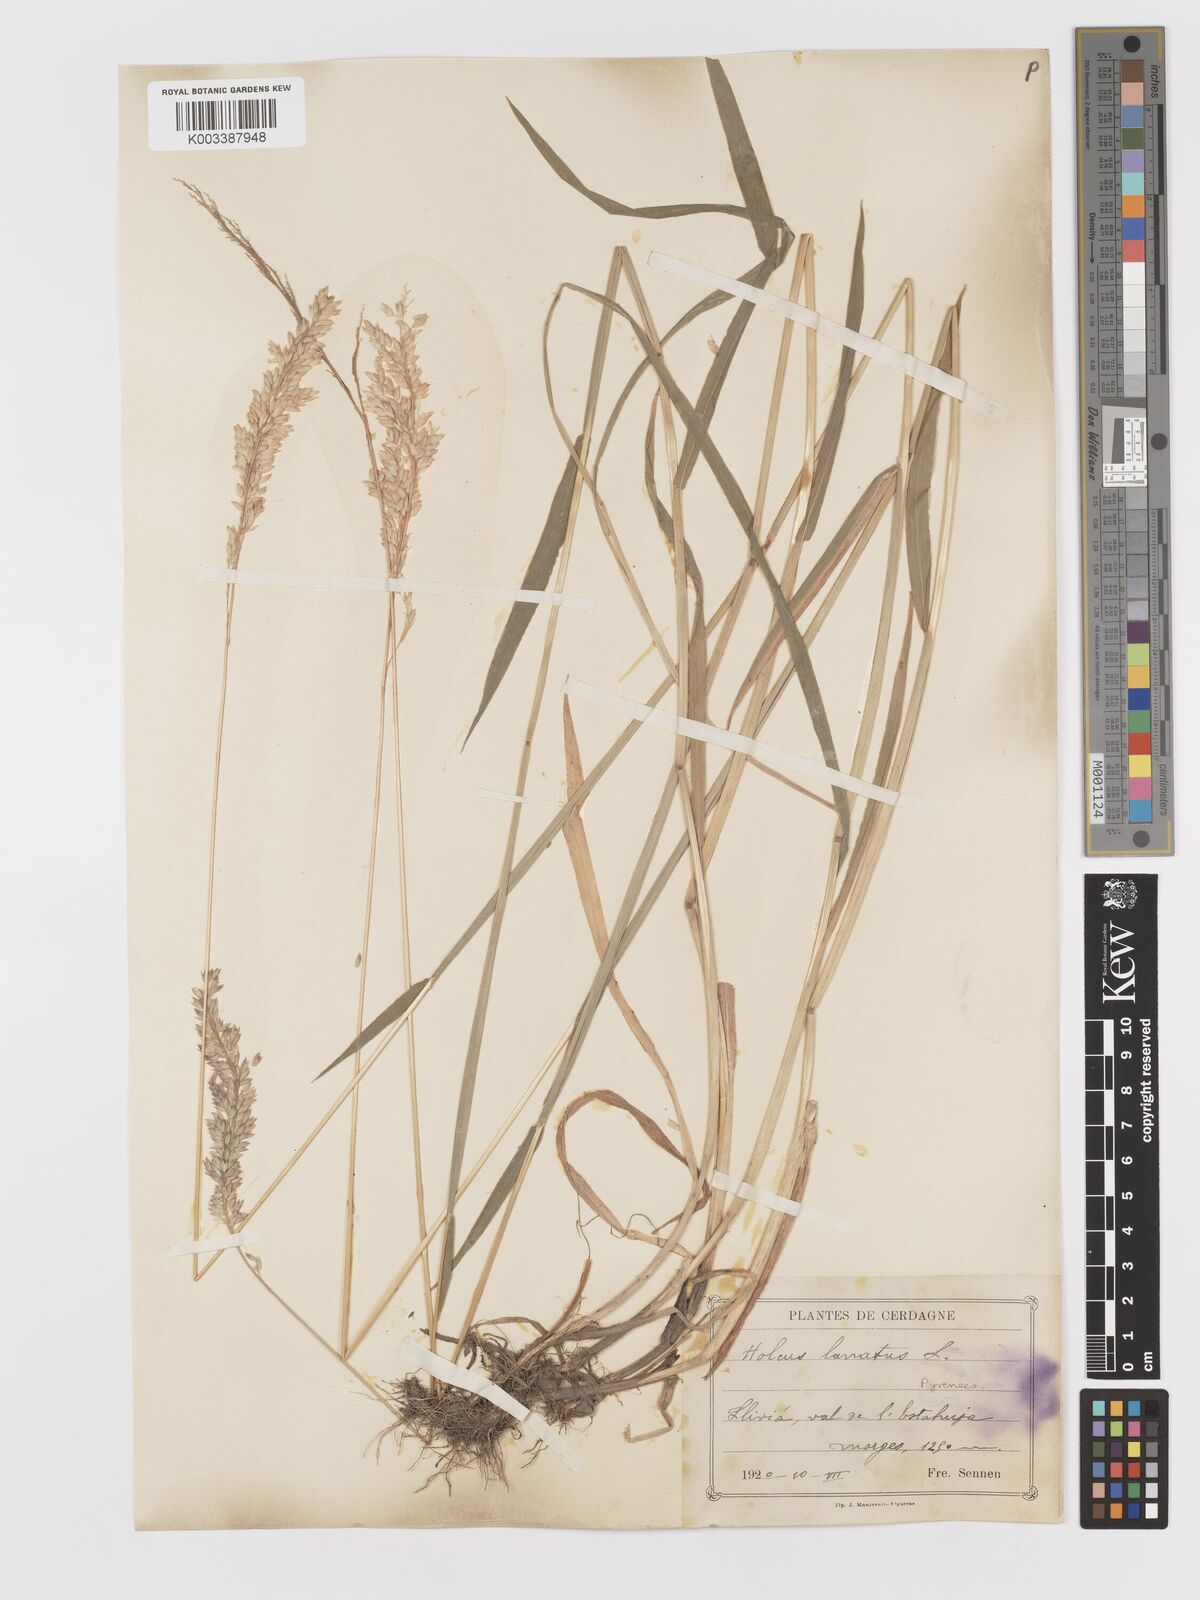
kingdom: Plantae
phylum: Tracheophyta
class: Liliopsida
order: Poales
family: Poaceae
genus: Holcus
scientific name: Holcus lanatus
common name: Yorkshire-fog
